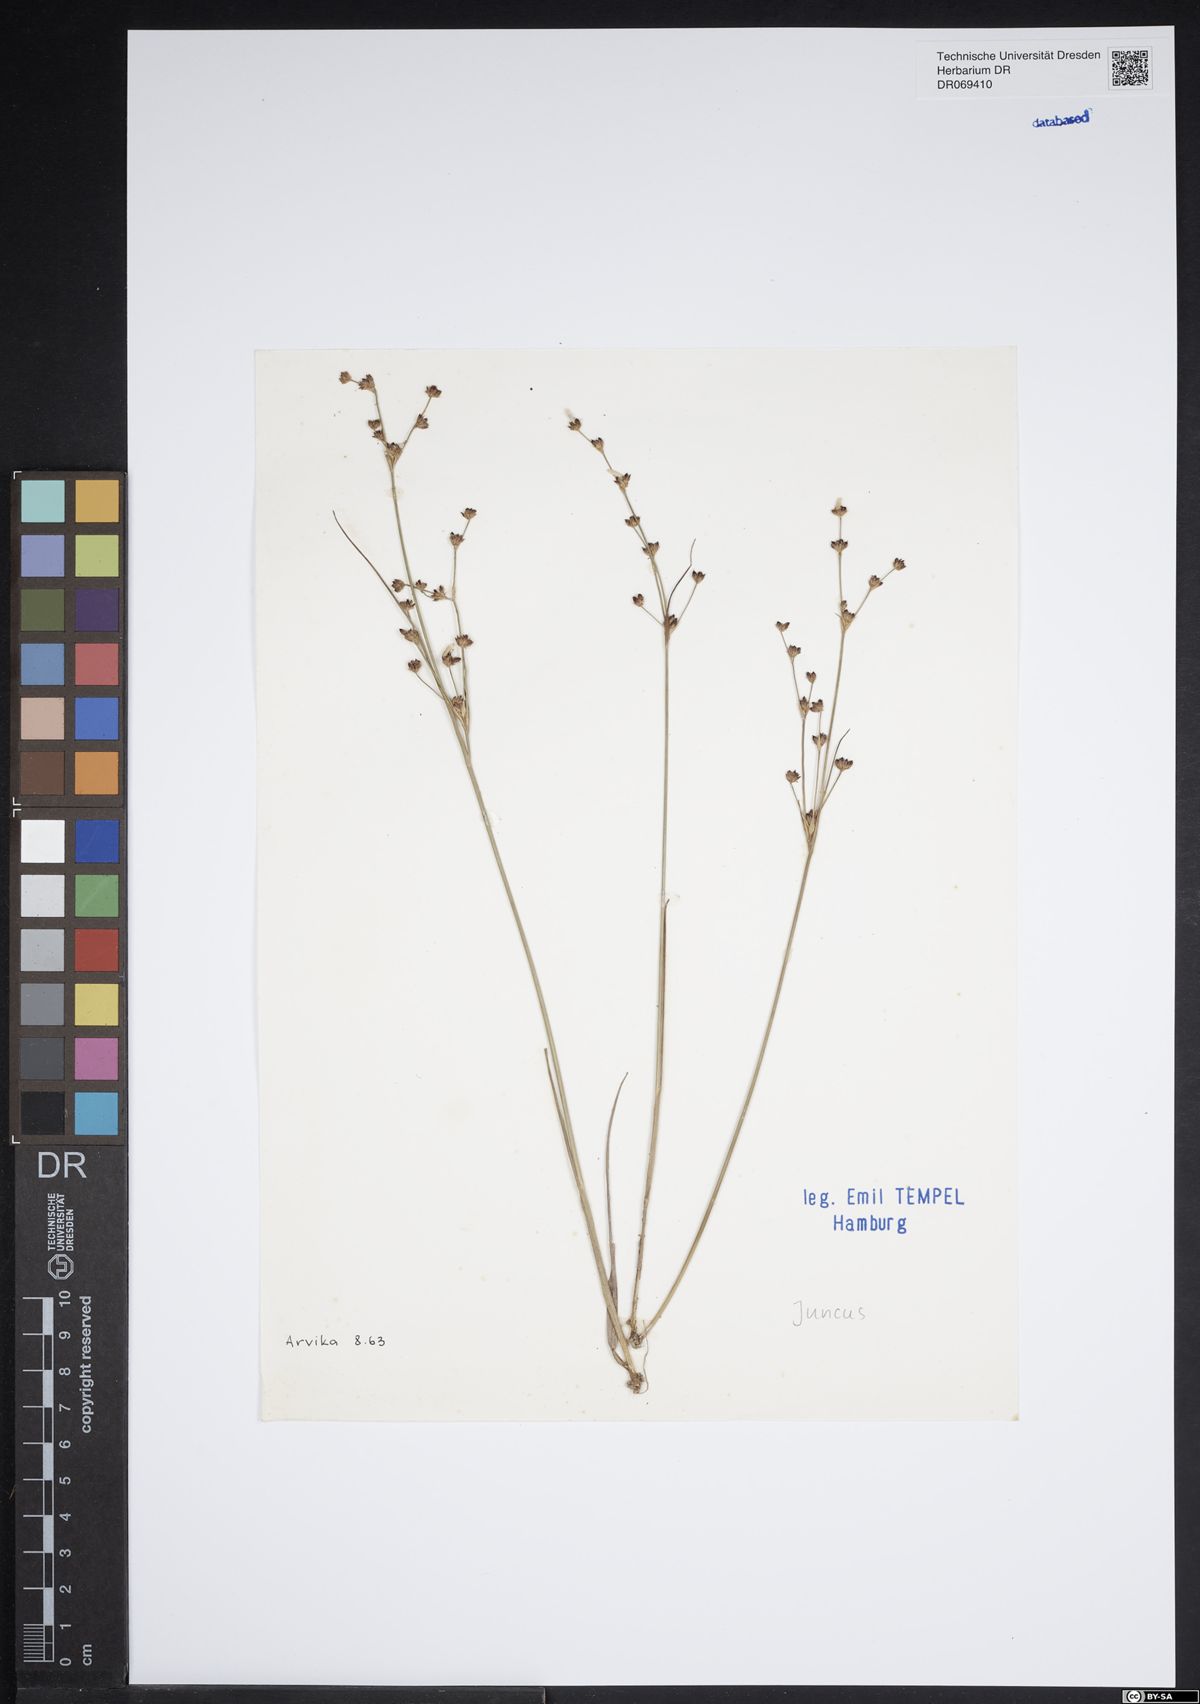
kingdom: Plantae
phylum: Tracheophyta
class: Liliopsida
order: Poales
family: Juncaceae
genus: Juncus
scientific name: Juncus
